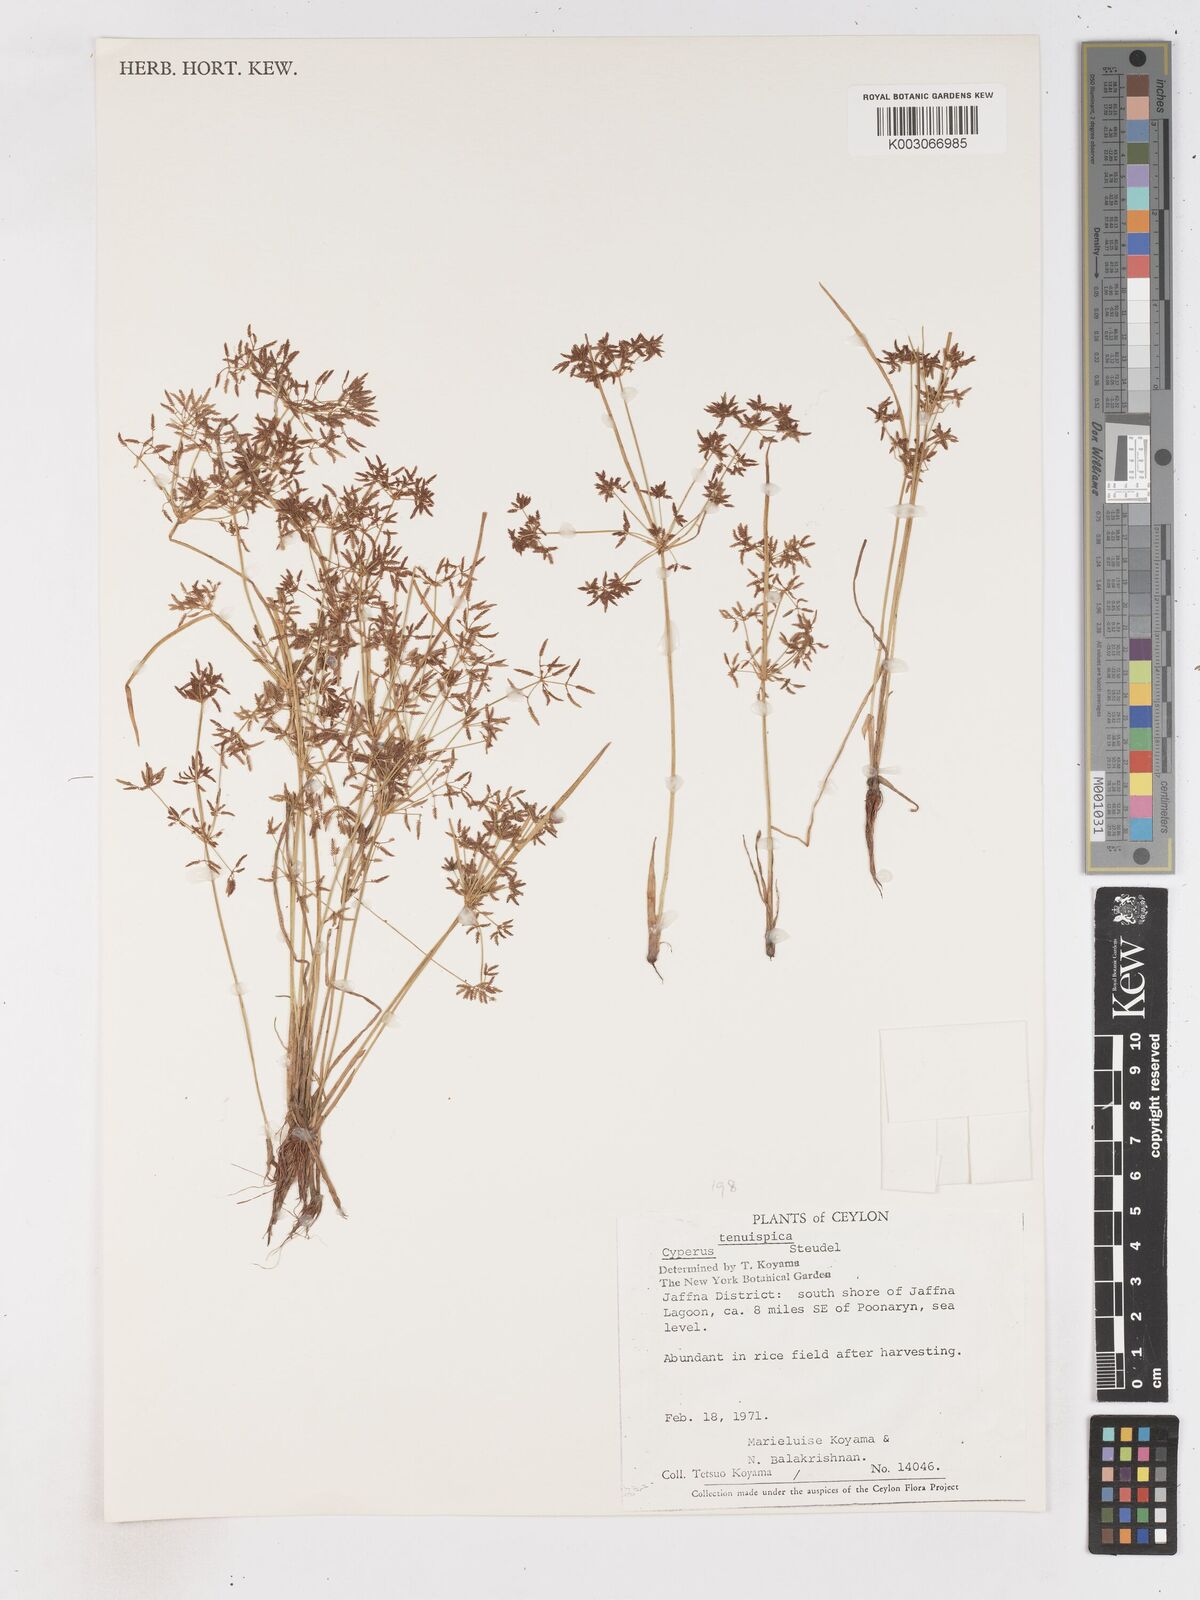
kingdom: Plantae
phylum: Tracheophyta
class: Liliopsida
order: Poales
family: Cyperaceae
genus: Cyperus
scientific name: Cyperus tenuispica
